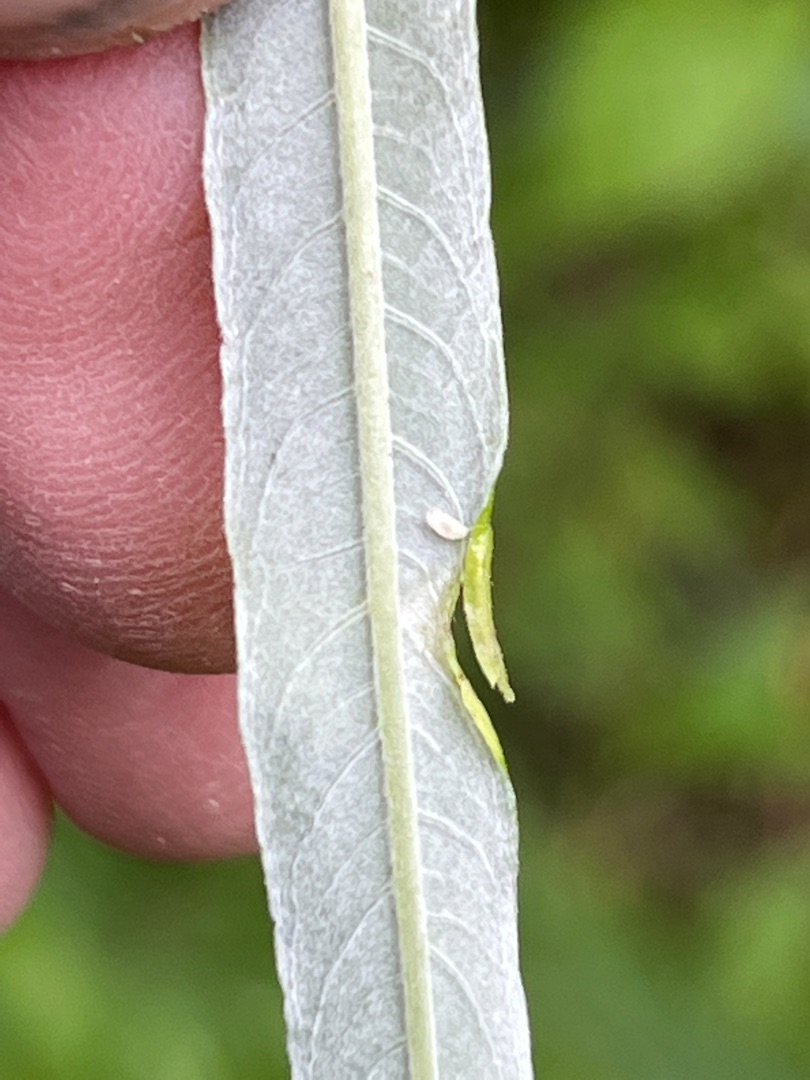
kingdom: Animalia
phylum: Arthropoda
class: Insecta
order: Diptera
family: Cecidomyiidae
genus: Rabdophaga
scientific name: Rabdophaga marginemtorquens
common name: Båndpilegalmyg
